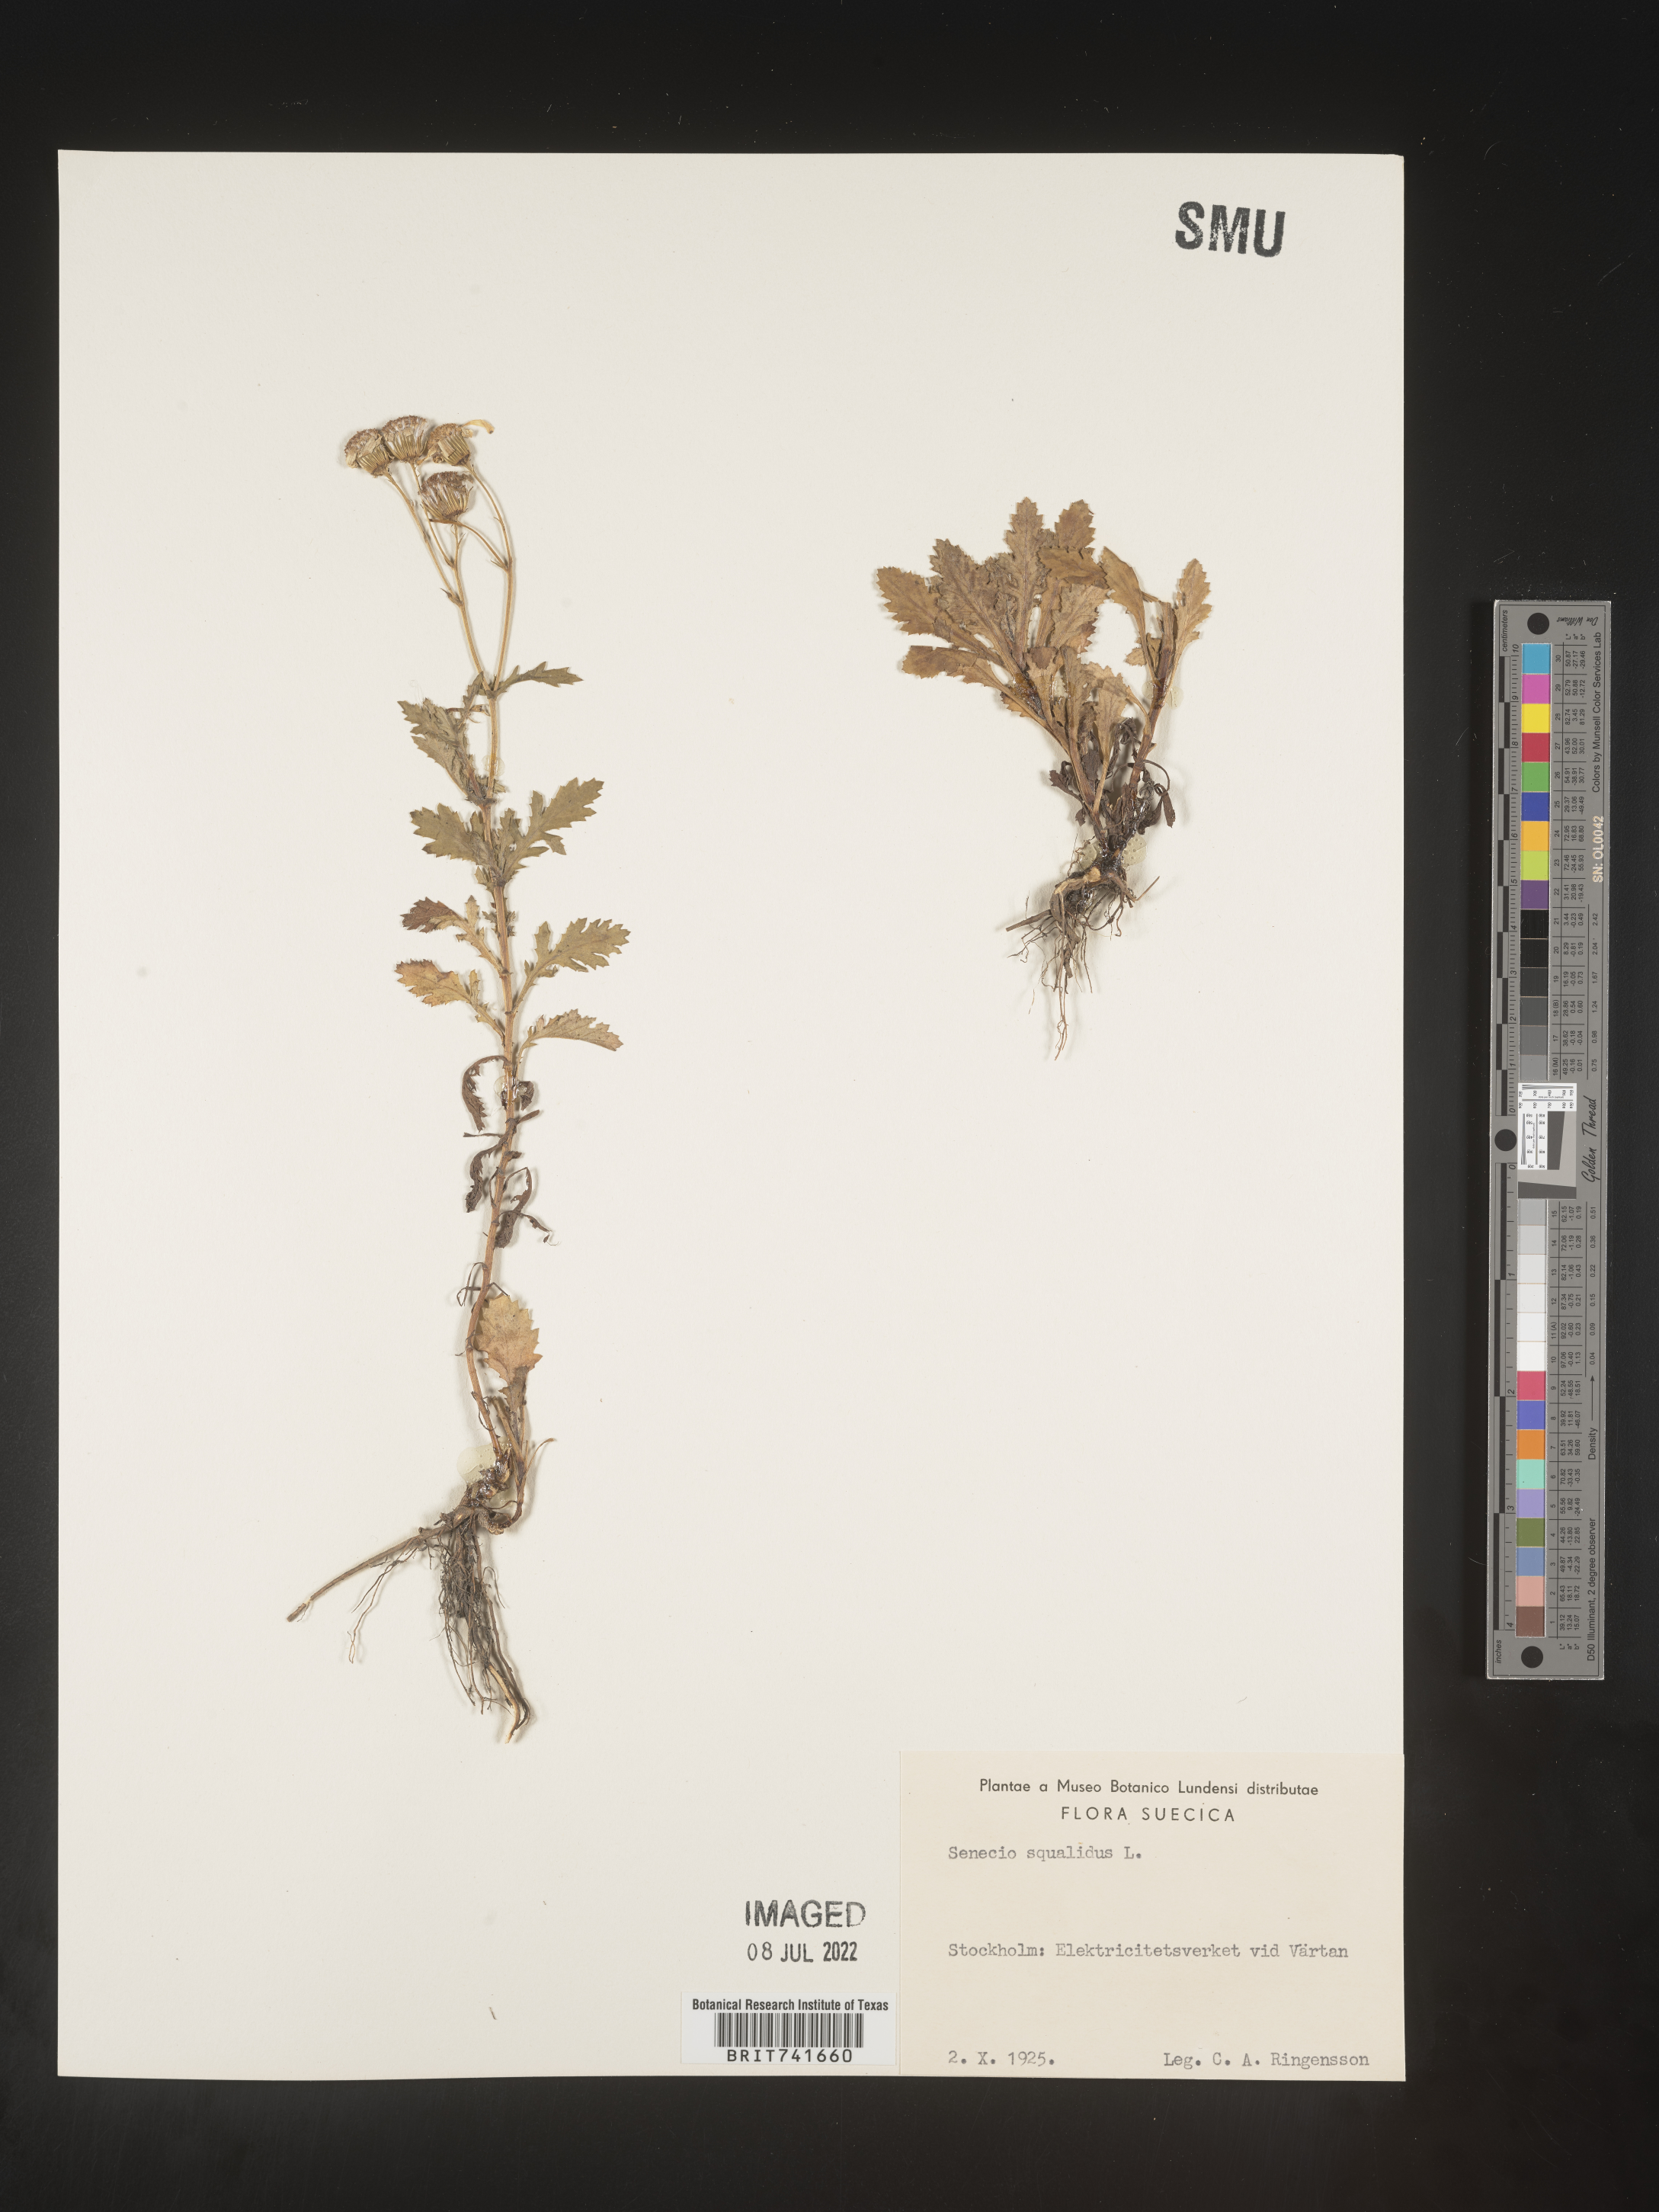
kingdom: Plantae
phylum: Tracheophyta
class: Magnoliopsida
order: Asterales
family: Asteraceae
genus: Senecio
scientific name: Senecio
